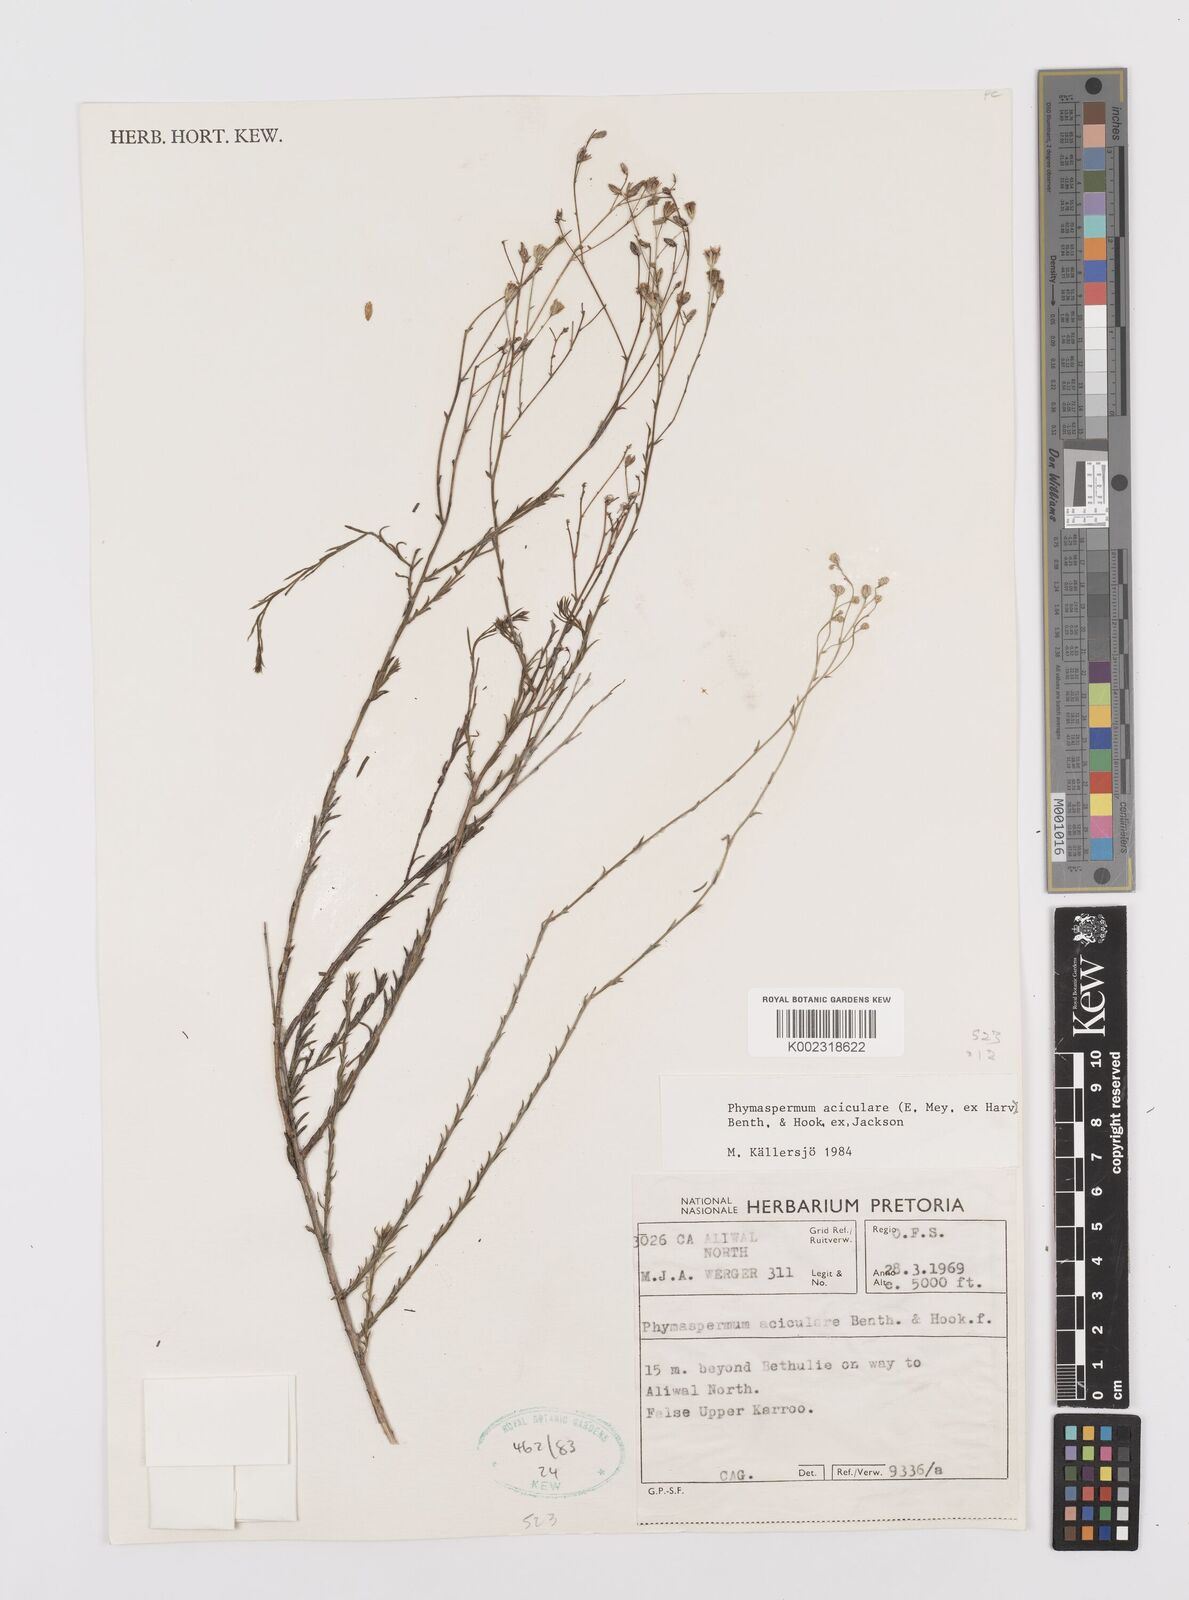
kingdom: Plantae
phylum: Tracheophyta
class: Magnoliopsida
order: Asterales
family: Asteraceae
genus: Phymaspermum
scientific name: Phymaspermum aciculare
